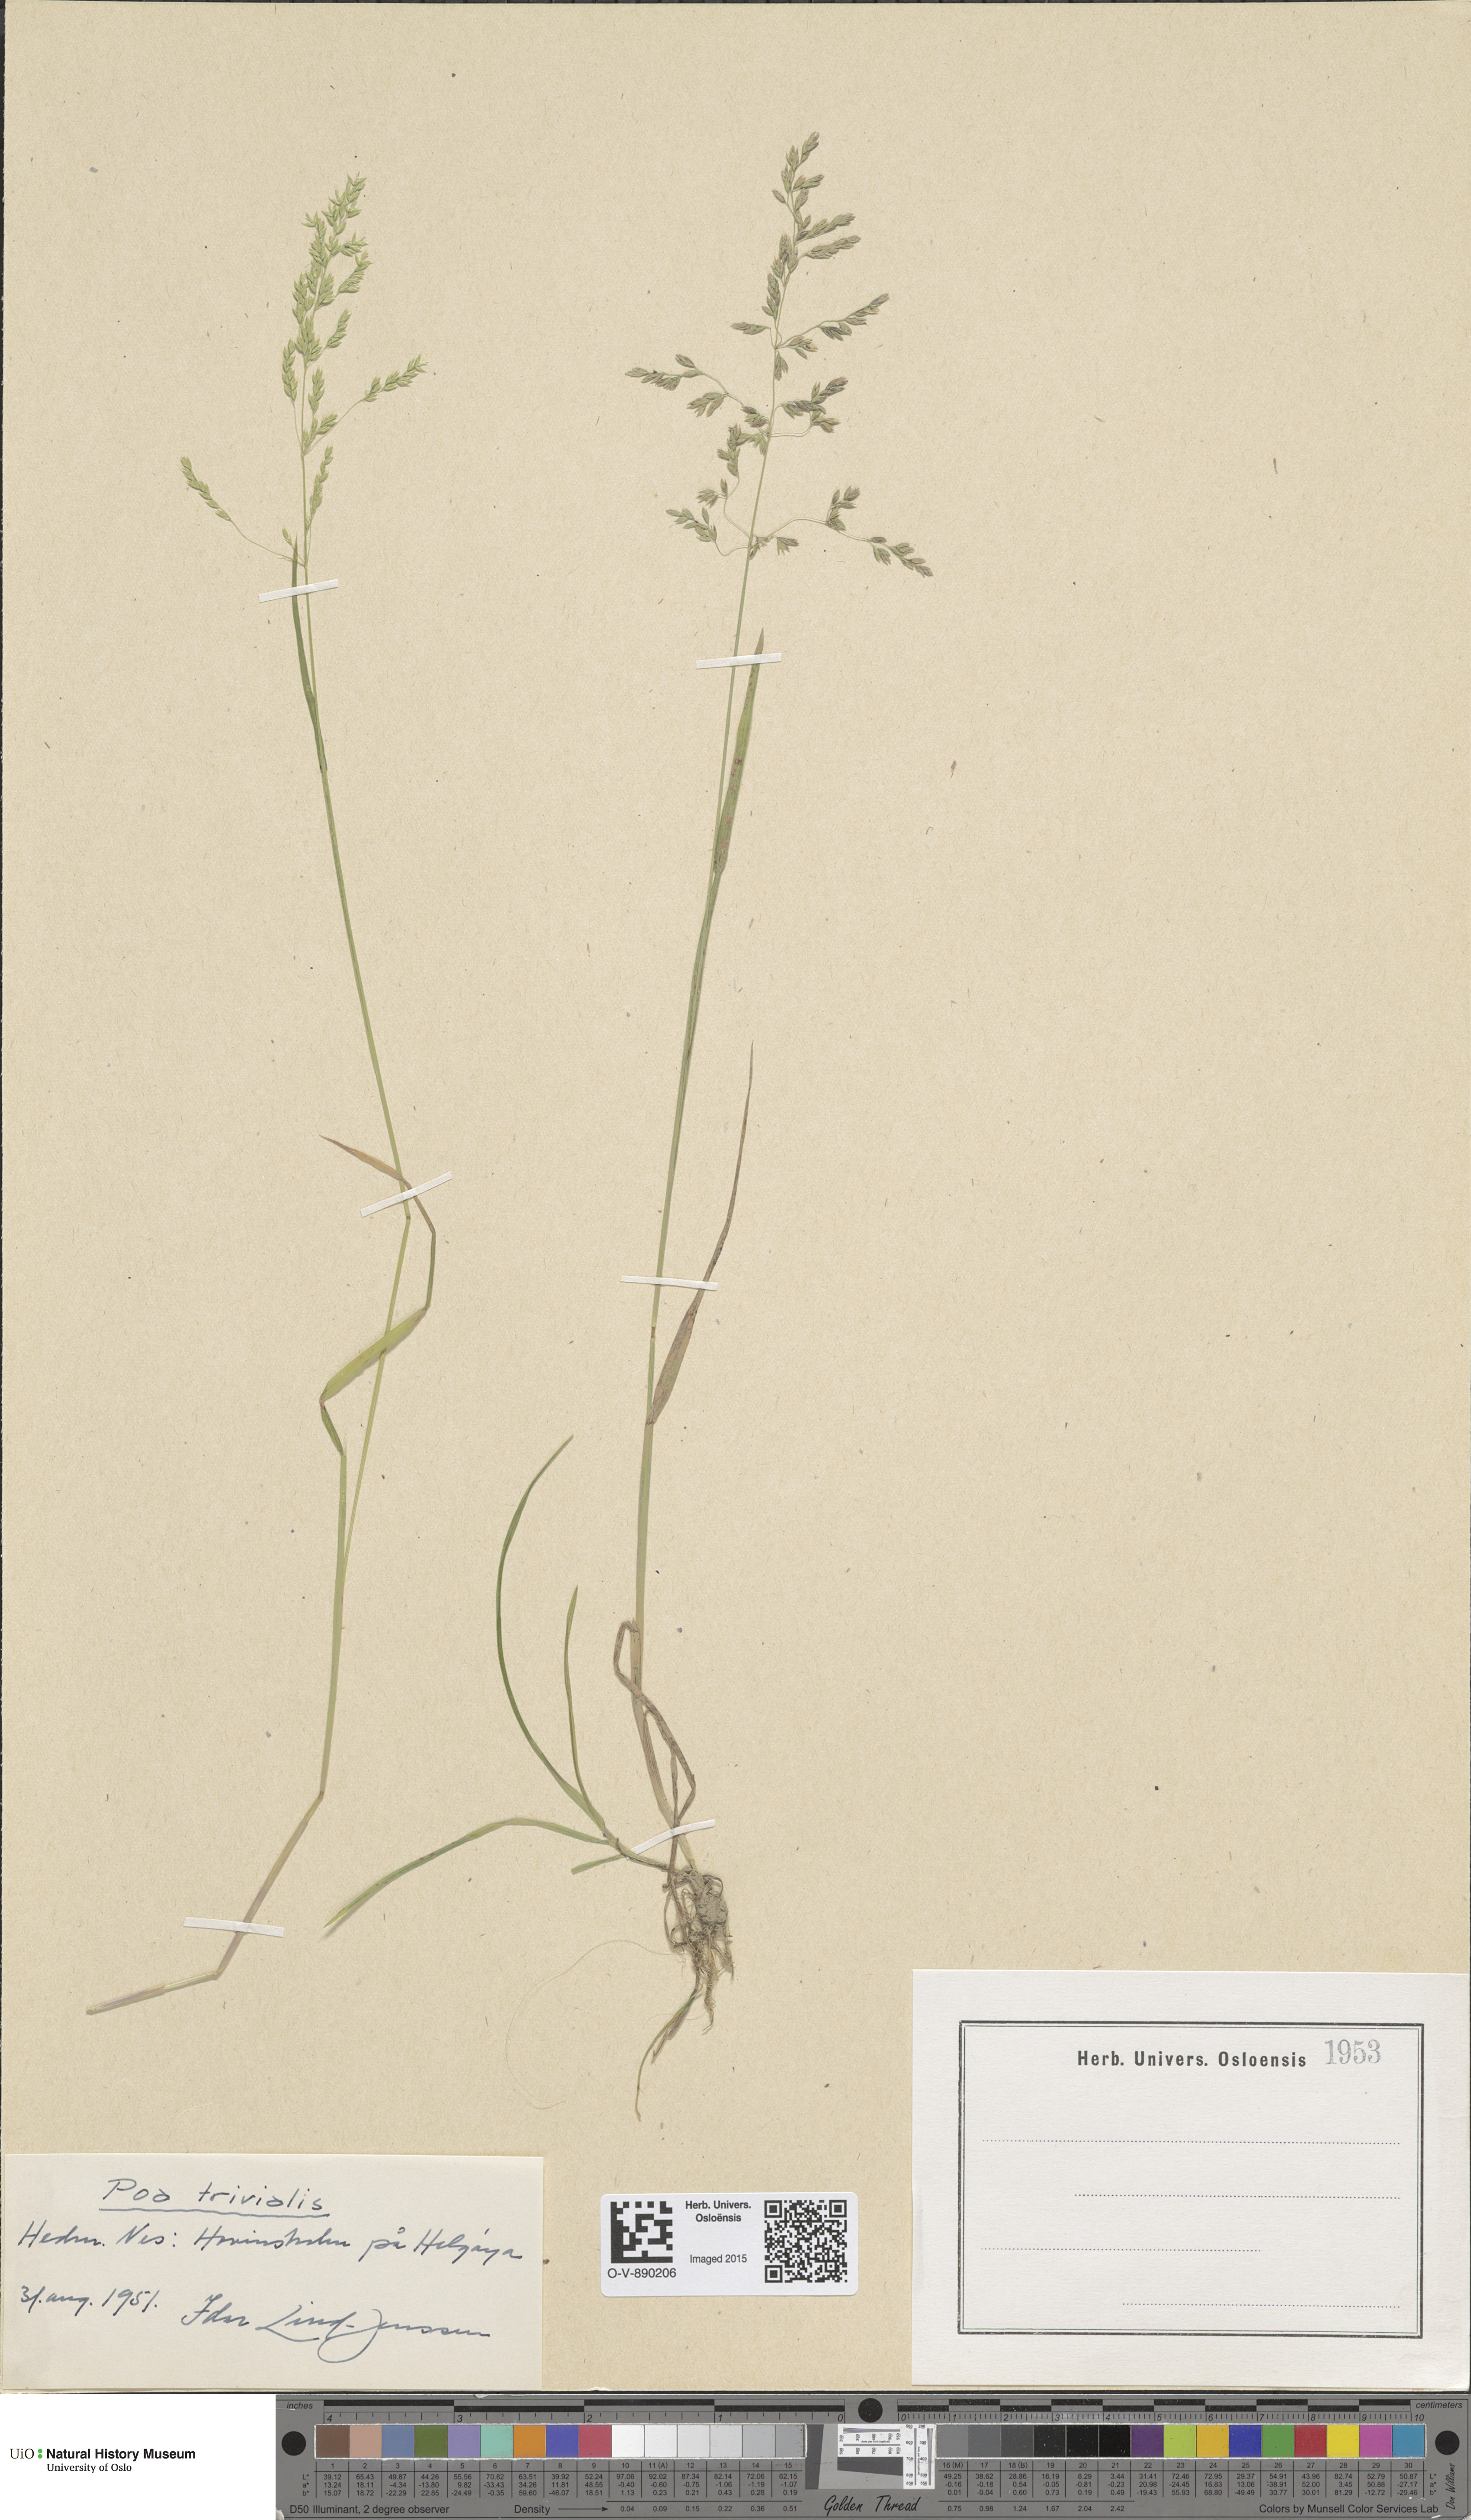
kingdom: Plantae
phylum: Tracheophyta
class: Liliopsida
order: Poales
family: Poaceae
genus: Poa
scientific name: Poa trivialis
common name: Rough bluegrass
